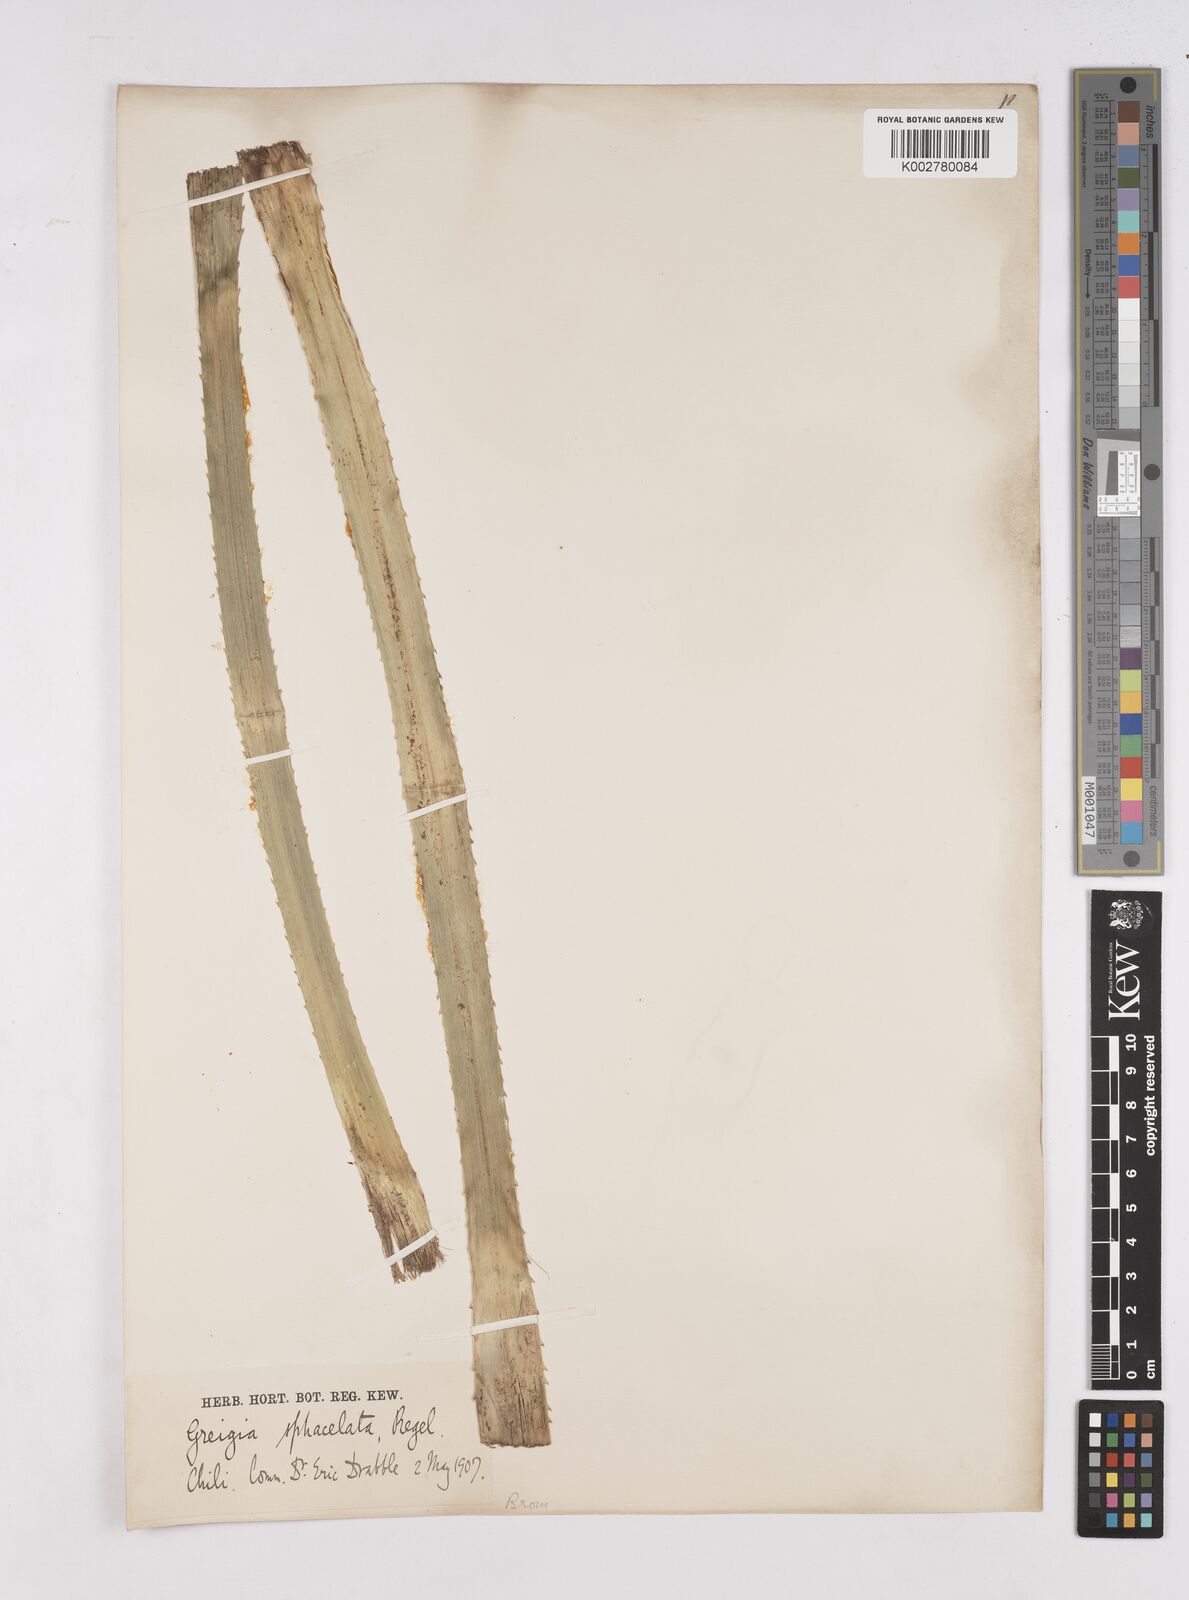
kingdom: Plantae
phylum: Tracheophyta
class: Liliopsida
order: Poales
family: Bromeliaceae
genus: Greigia
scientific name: Greigia sphacelata
